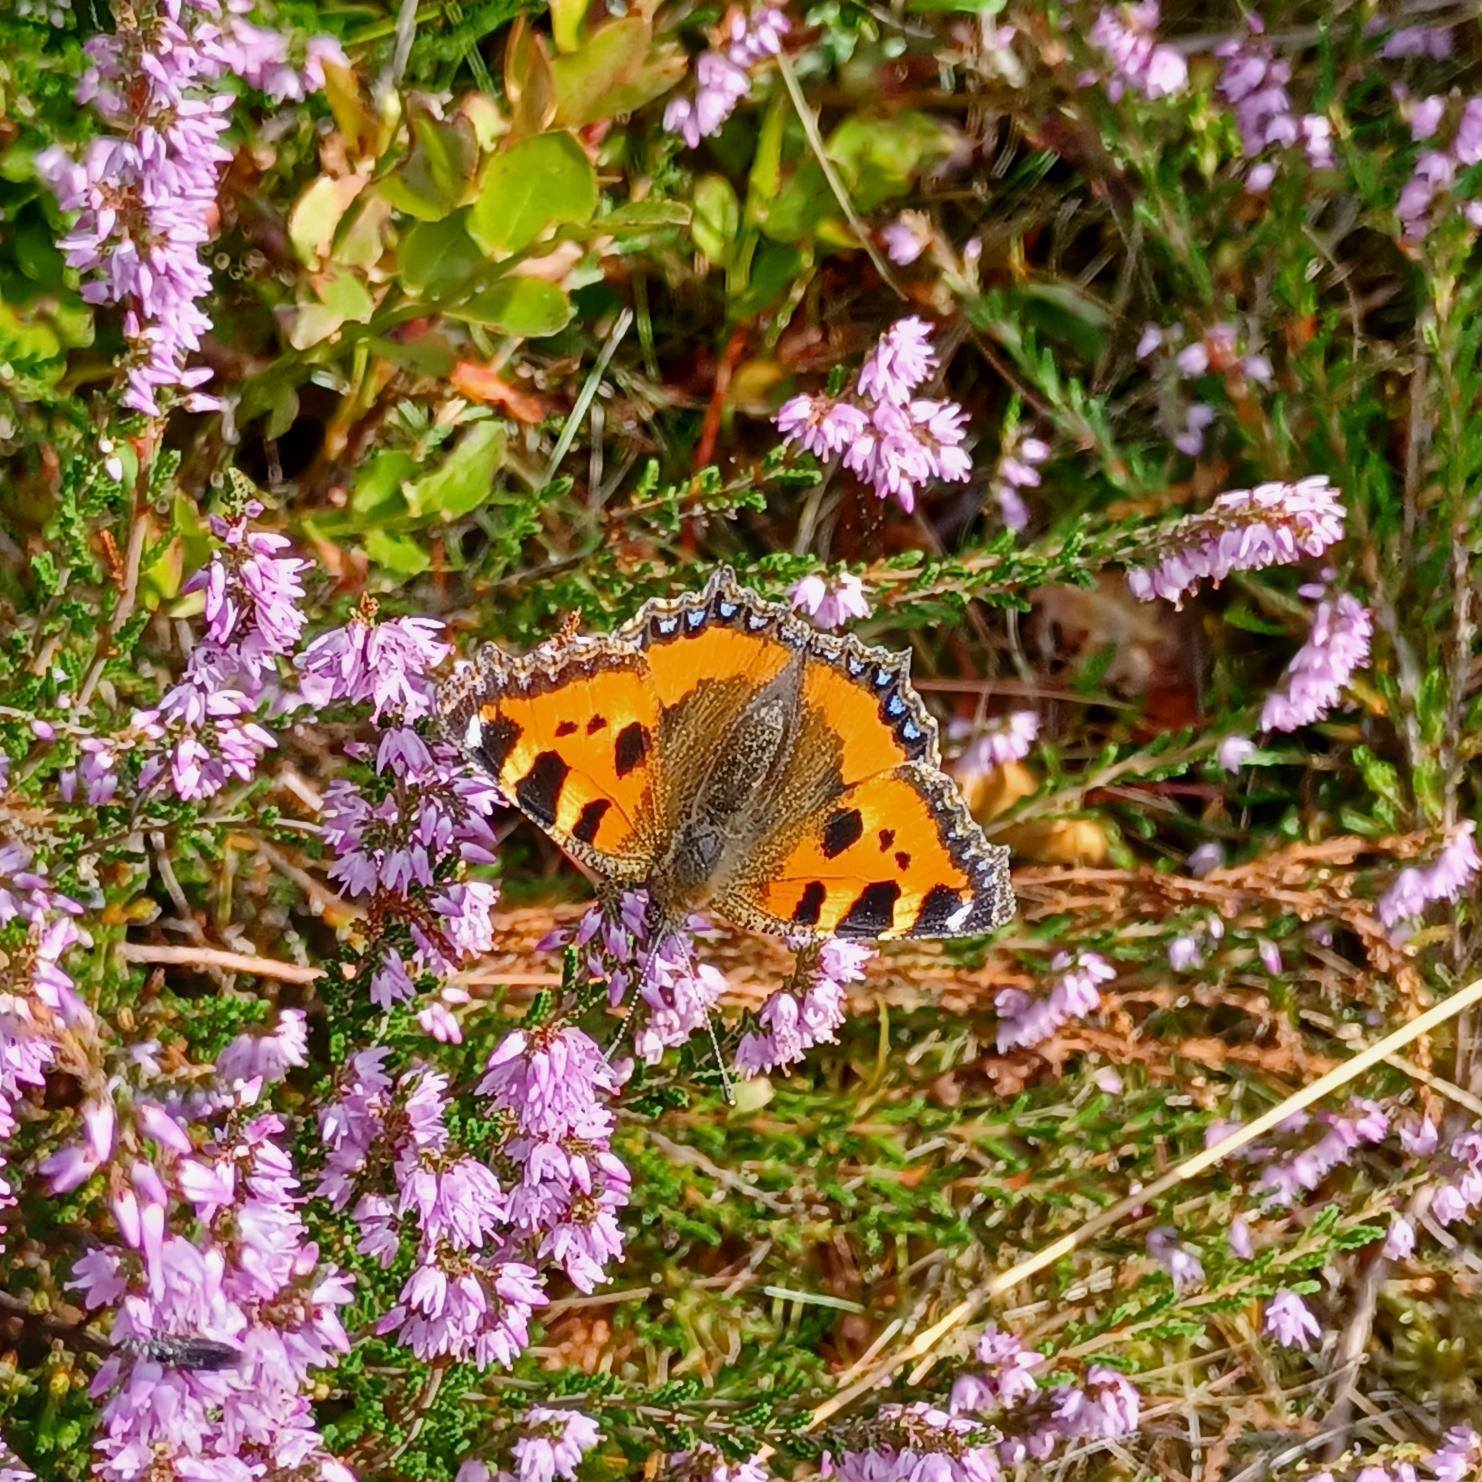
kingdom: Animalia
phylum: Arthropoda
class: Insecta
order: Lepidoptera
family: Nymphalidae
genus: Aglais
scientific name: Aglais urticae
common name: Nældens takvinge
